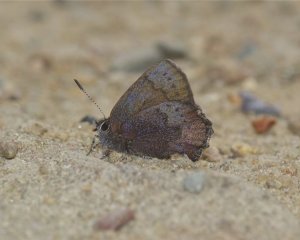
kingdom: Animalia
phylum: Arthropoda
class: Insecta
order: Lepidoptera
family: Lycaenidae
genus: Incisalia
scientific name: Incisalia irioides
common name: Brown Elfin
